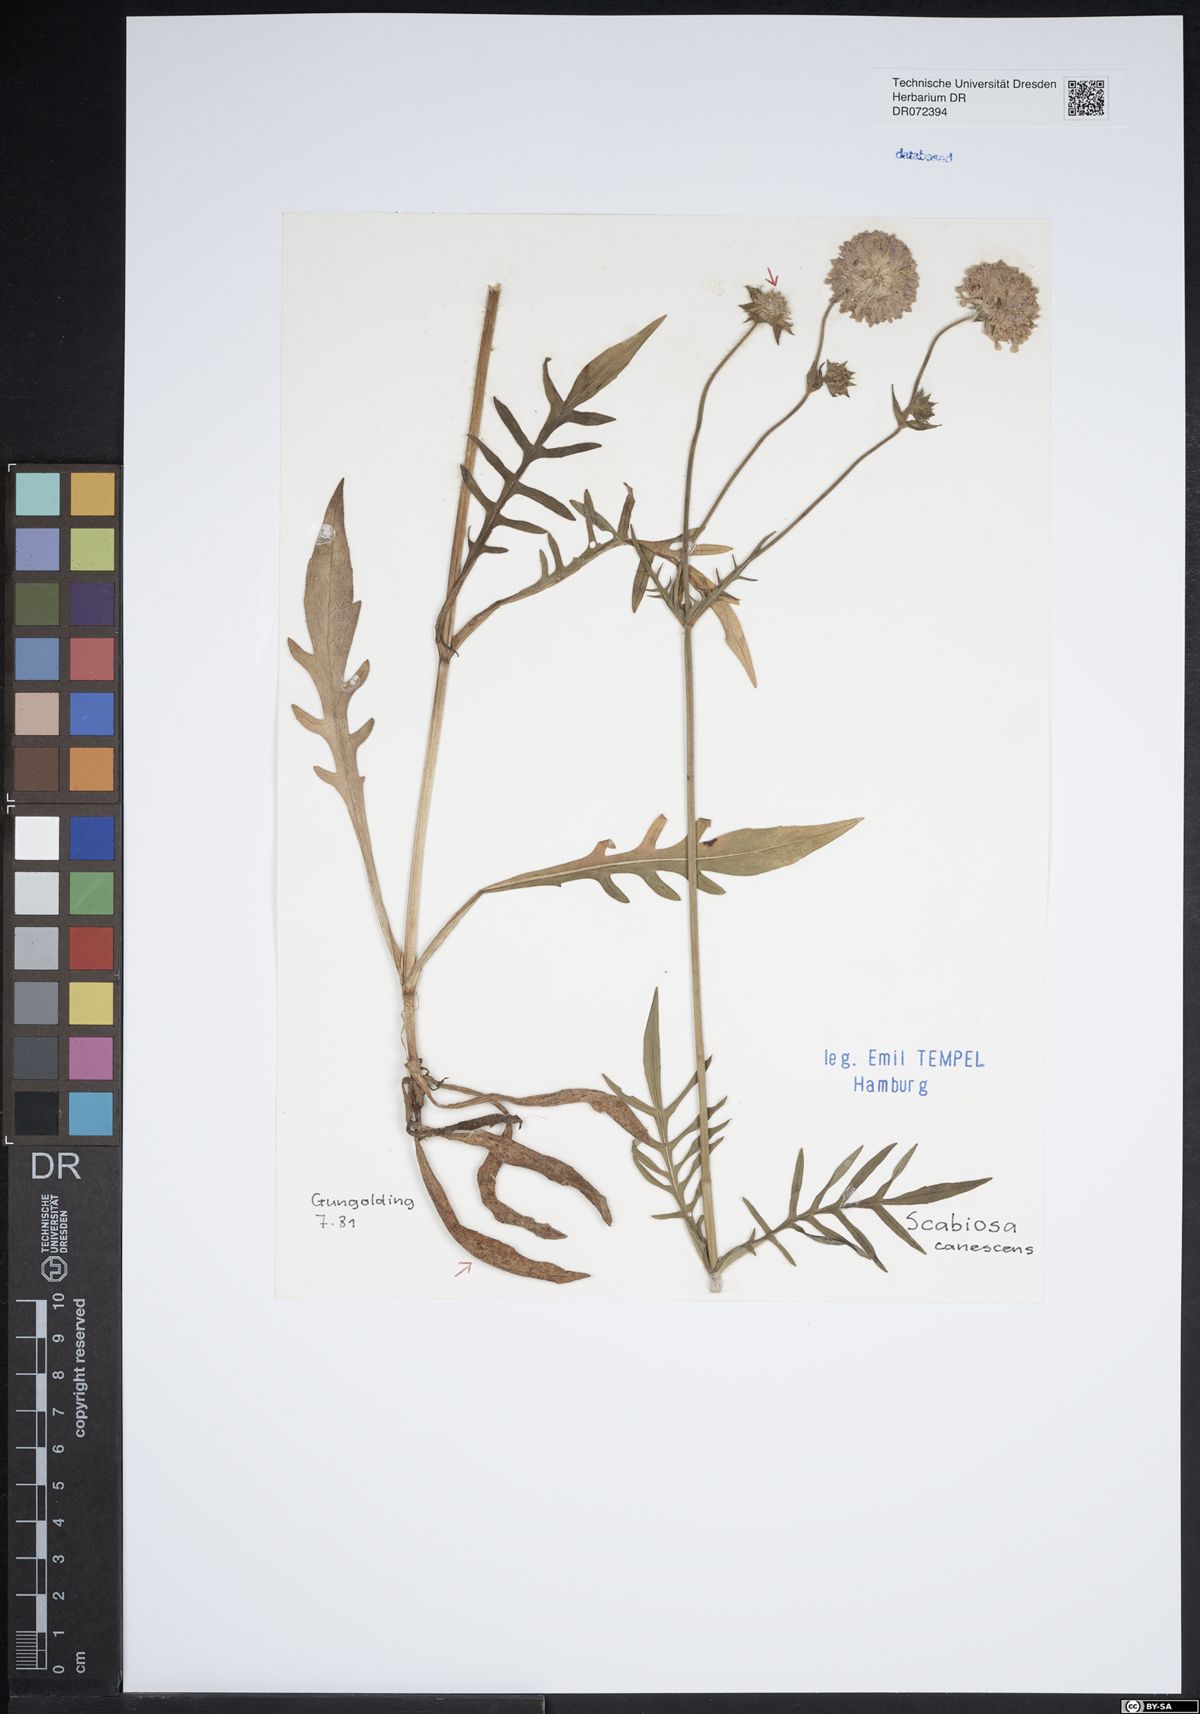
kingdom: Plantae
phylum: Tracheophyta
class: Magnoliopsida
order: Dipsacales
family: Caprifoliaceae
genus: Scabiosa
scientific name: Scabiosa canescens
